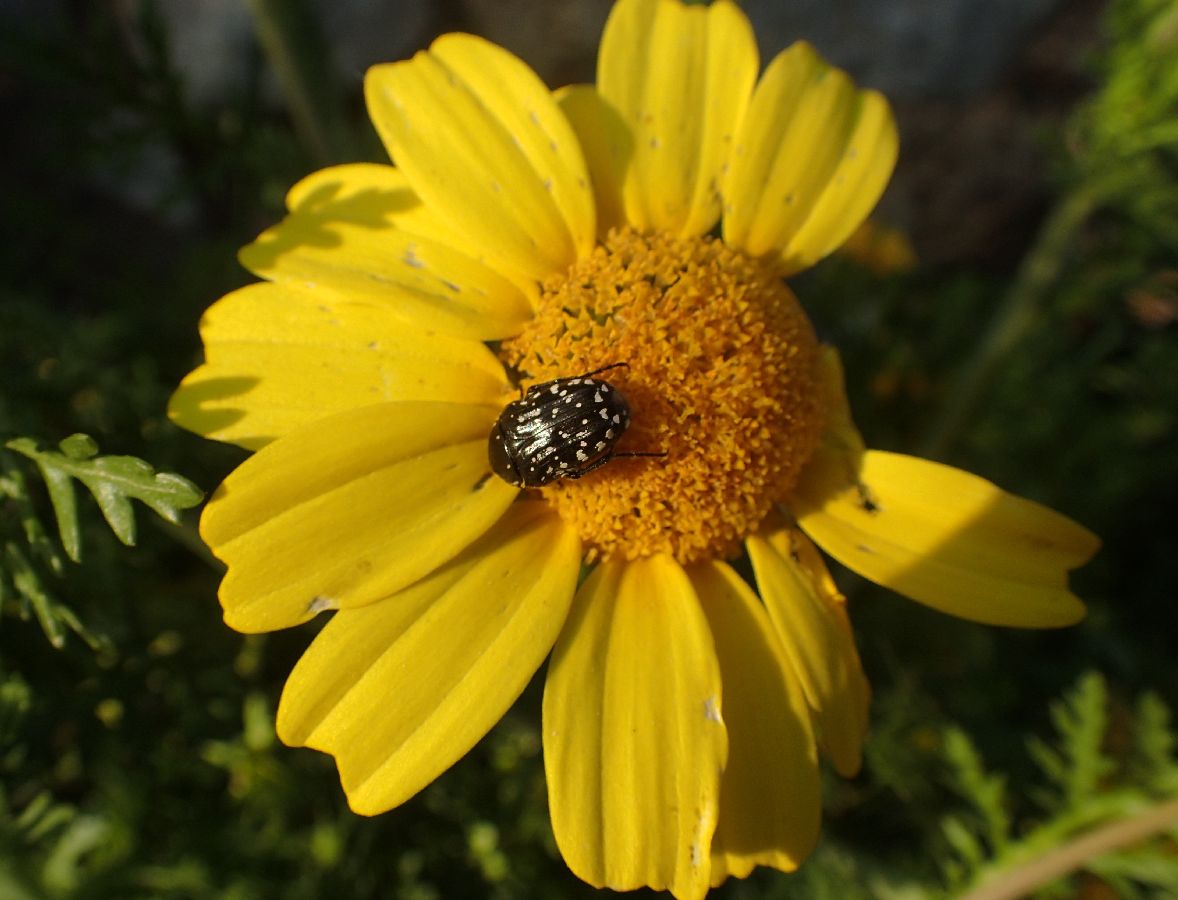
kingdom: Plantae
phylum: Tracheophyta
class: Magnoliopsida
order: Asterales
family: Asteraceae
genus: Glebionis
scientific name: Glebionis coronaria
